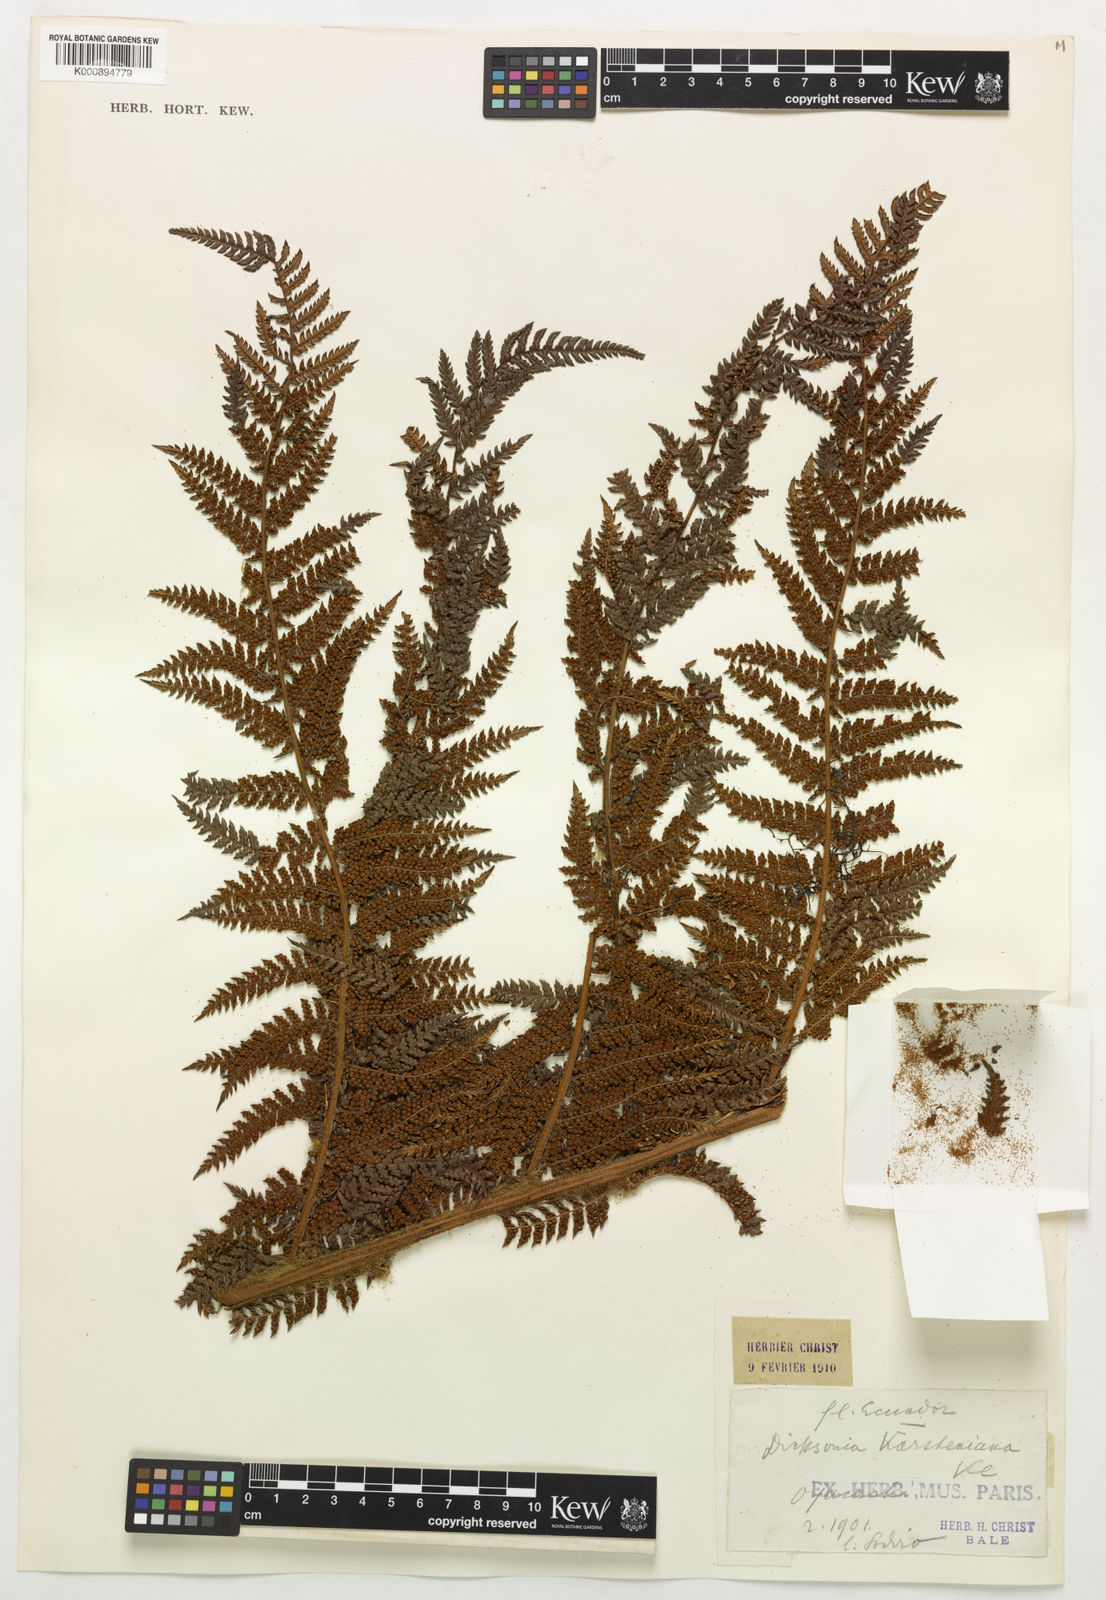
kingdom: Plantae
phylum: Tracheophyta
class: Polypodiopsida
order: Cyatheales
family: Dicksoniaceae
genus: Dicksonia
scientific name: Dicksonia karsteniana
